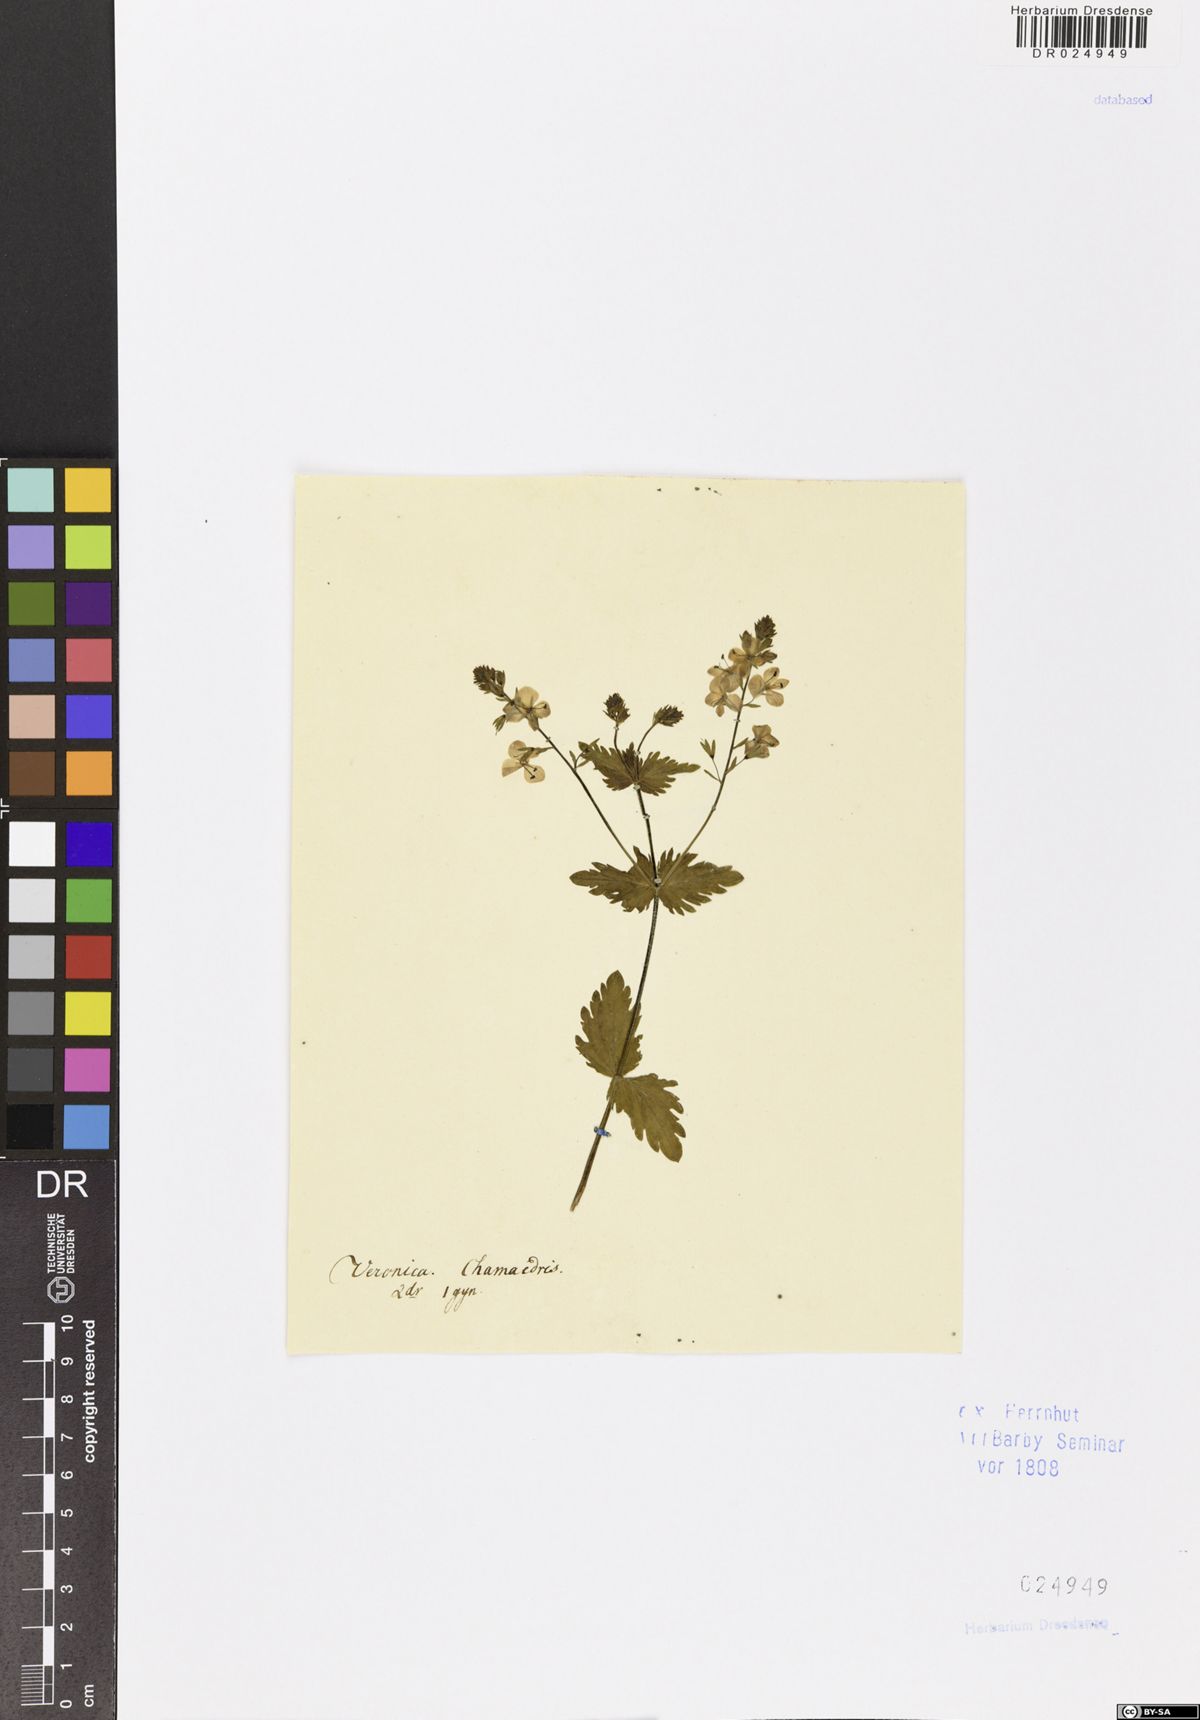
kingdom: Plantae
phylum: Tracheophyta
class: Magnoliopsida
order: Lamiales
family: Plantaginaceae
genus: Veronica
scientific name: Veronica chamaedrys
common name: Germander speedwell
